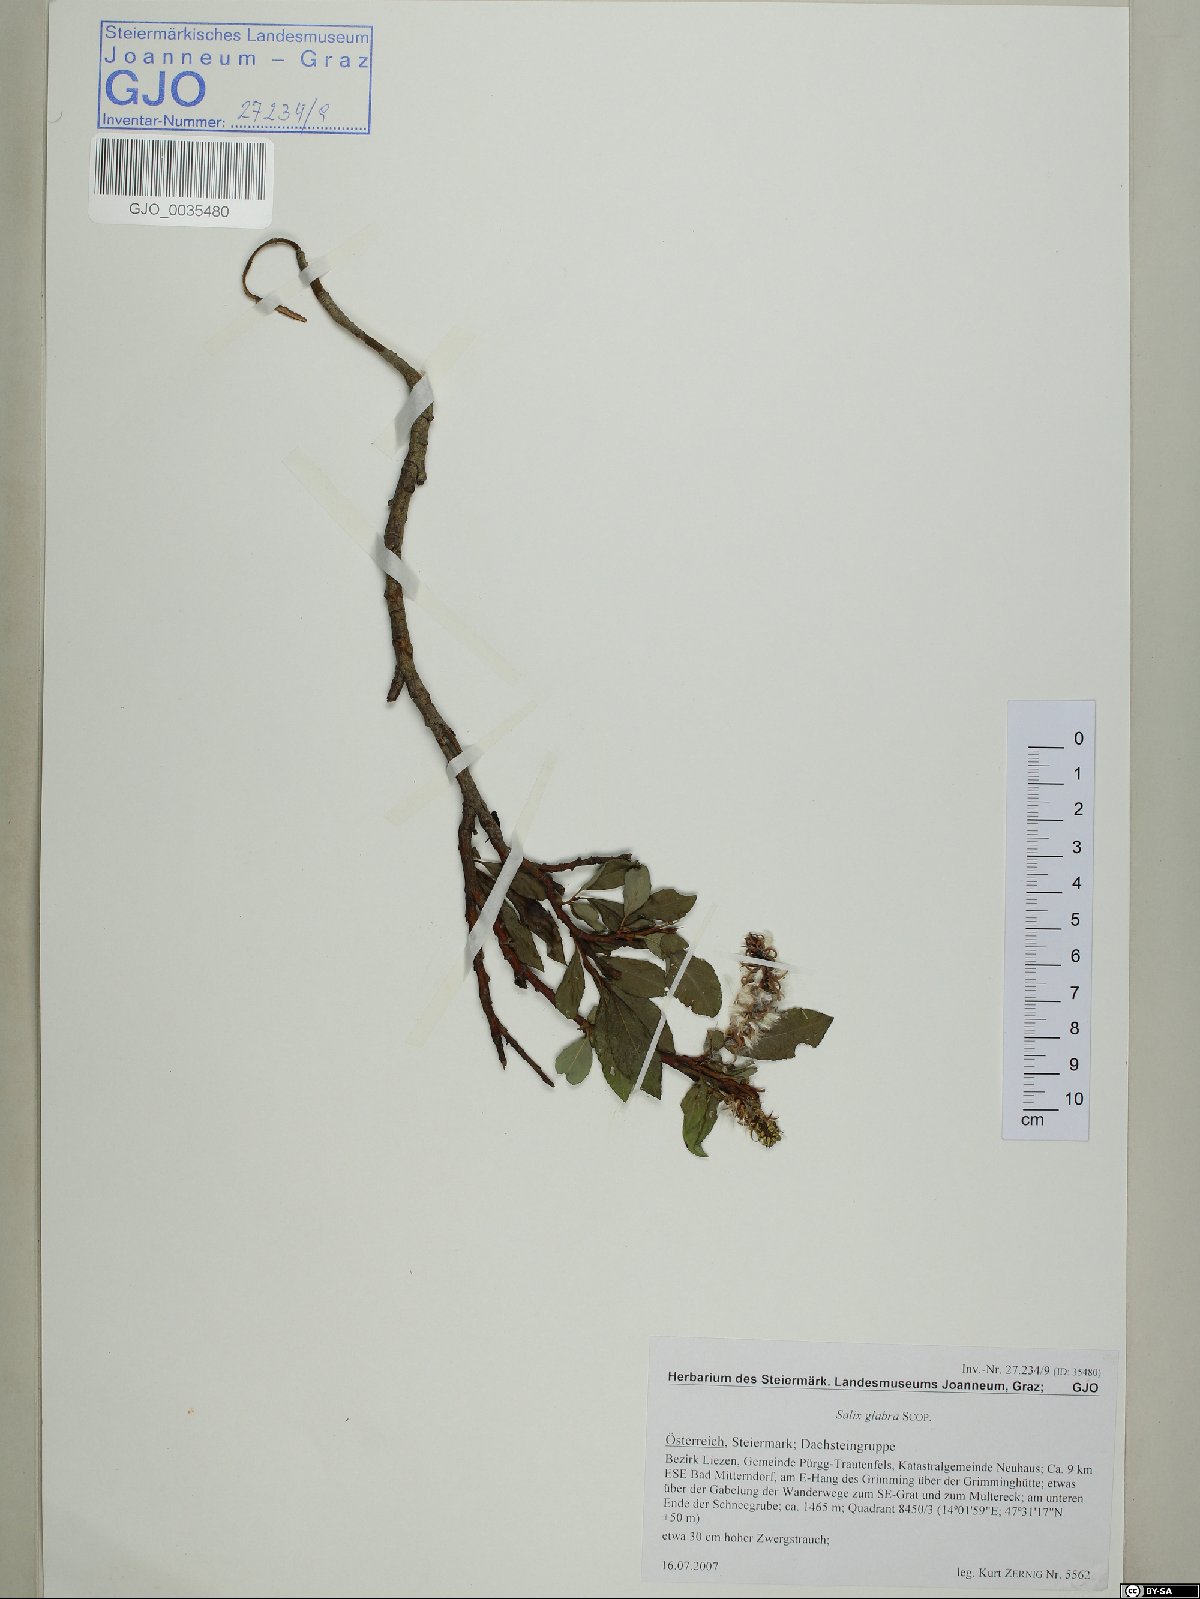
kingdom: Plantae
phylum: Tracheophyta
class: Magnoliopsida
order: Malpighiales
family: Salicaceae
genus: Salix
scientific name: Salix glabra
